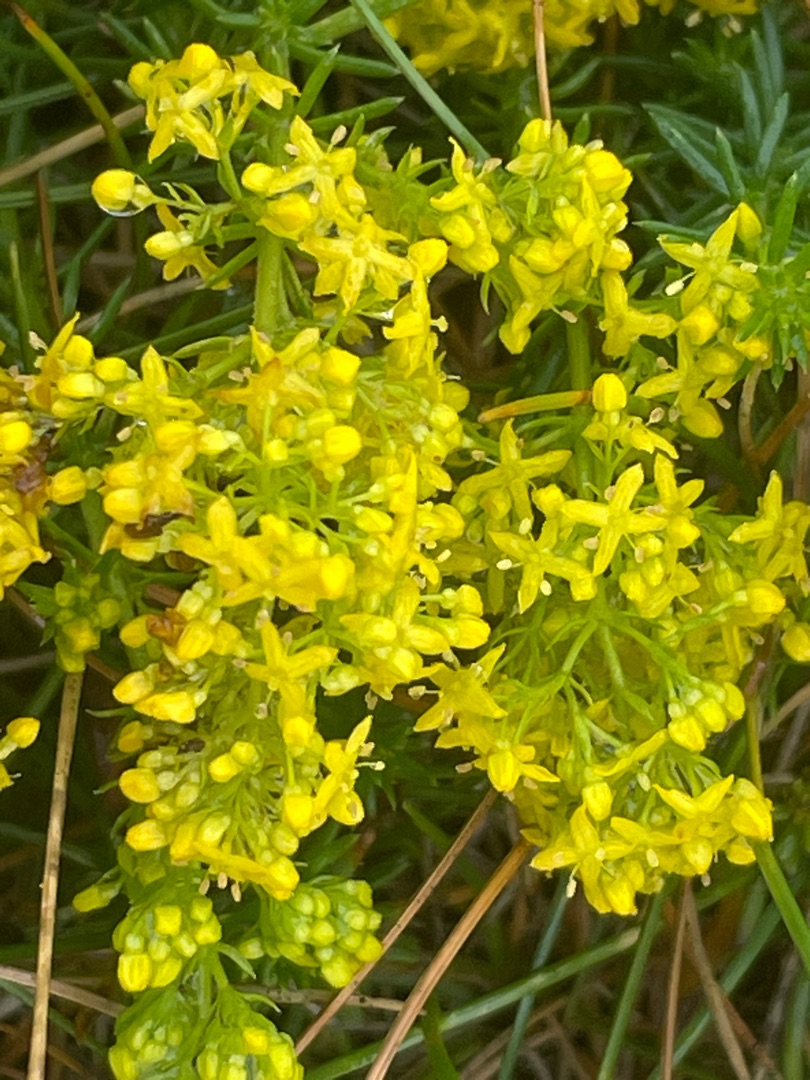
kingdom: Plantae
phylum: Tracheophyta
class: Magnoliopsida
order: Gentianales
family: Rubiaceae
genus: Galium
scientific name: Galium verum
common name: Gul snerre
